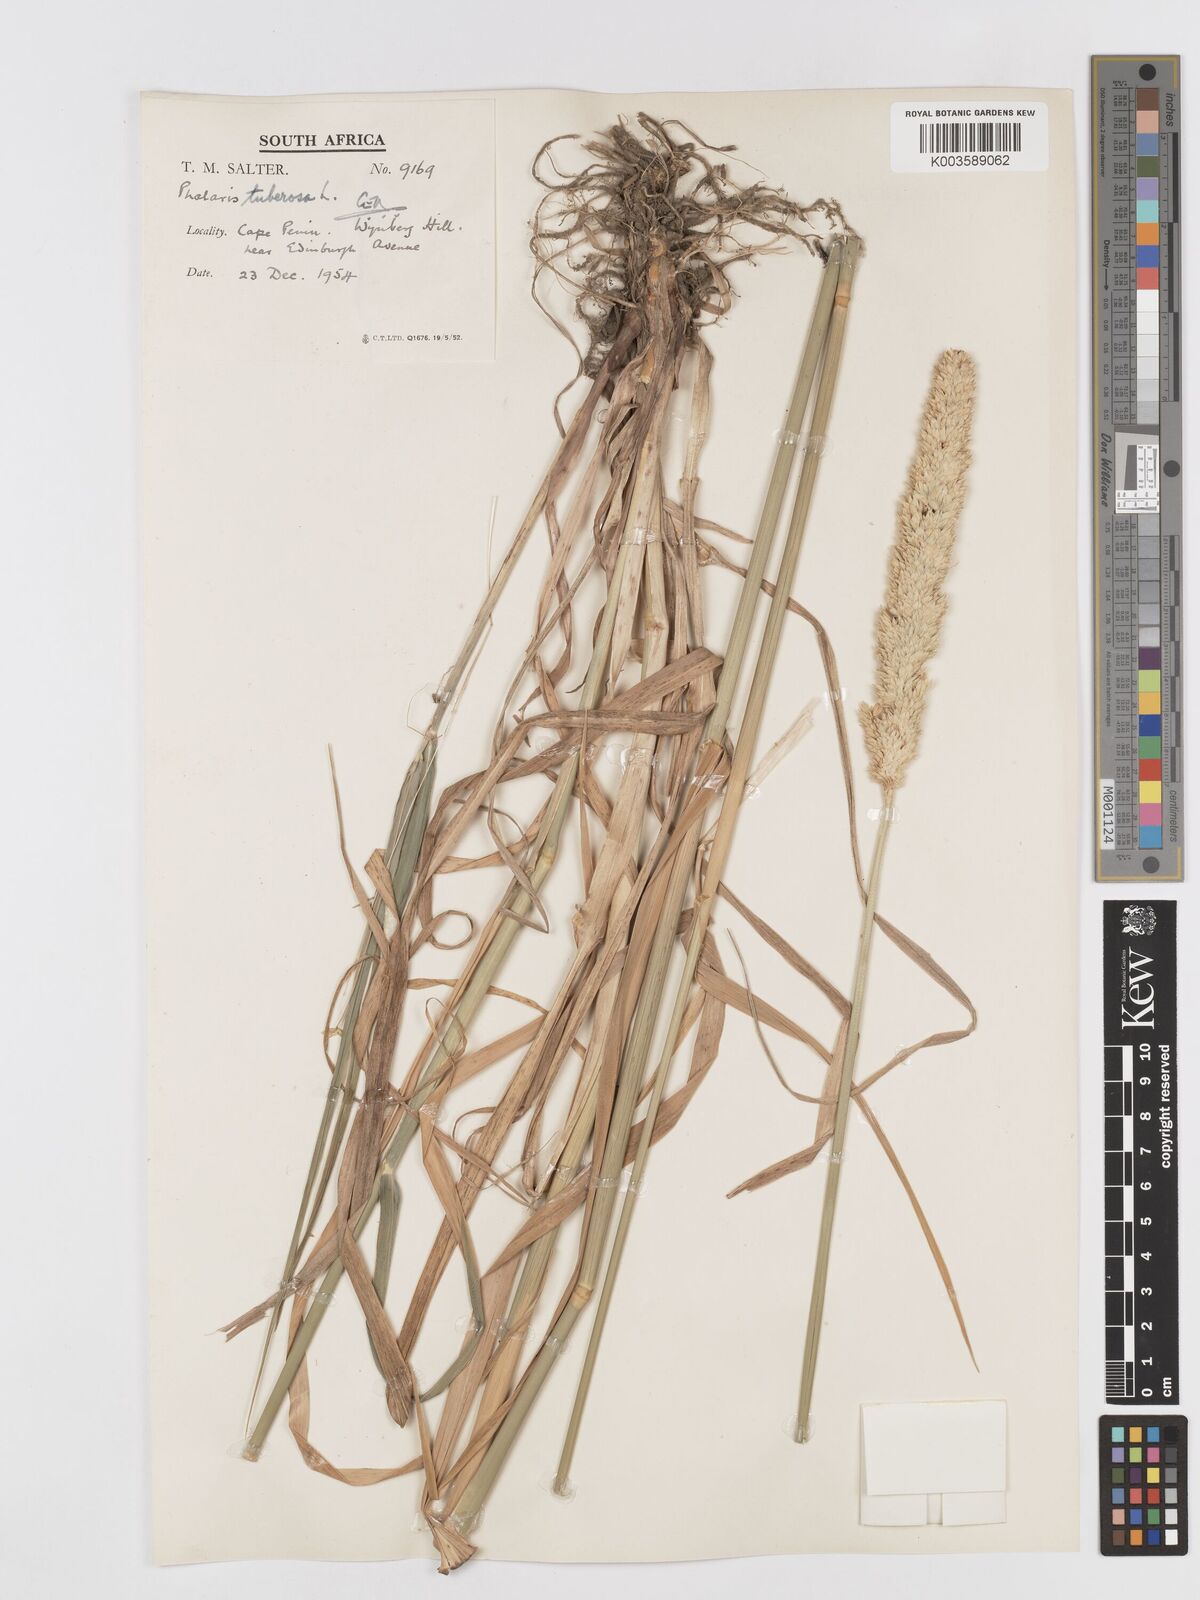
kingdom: Plantae
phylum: Tracheophyta
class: Liliopsida
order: Poales
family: Poaceae
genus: Phalaris
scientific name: Phalaris aquatica
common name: Bulbous canary-grass
